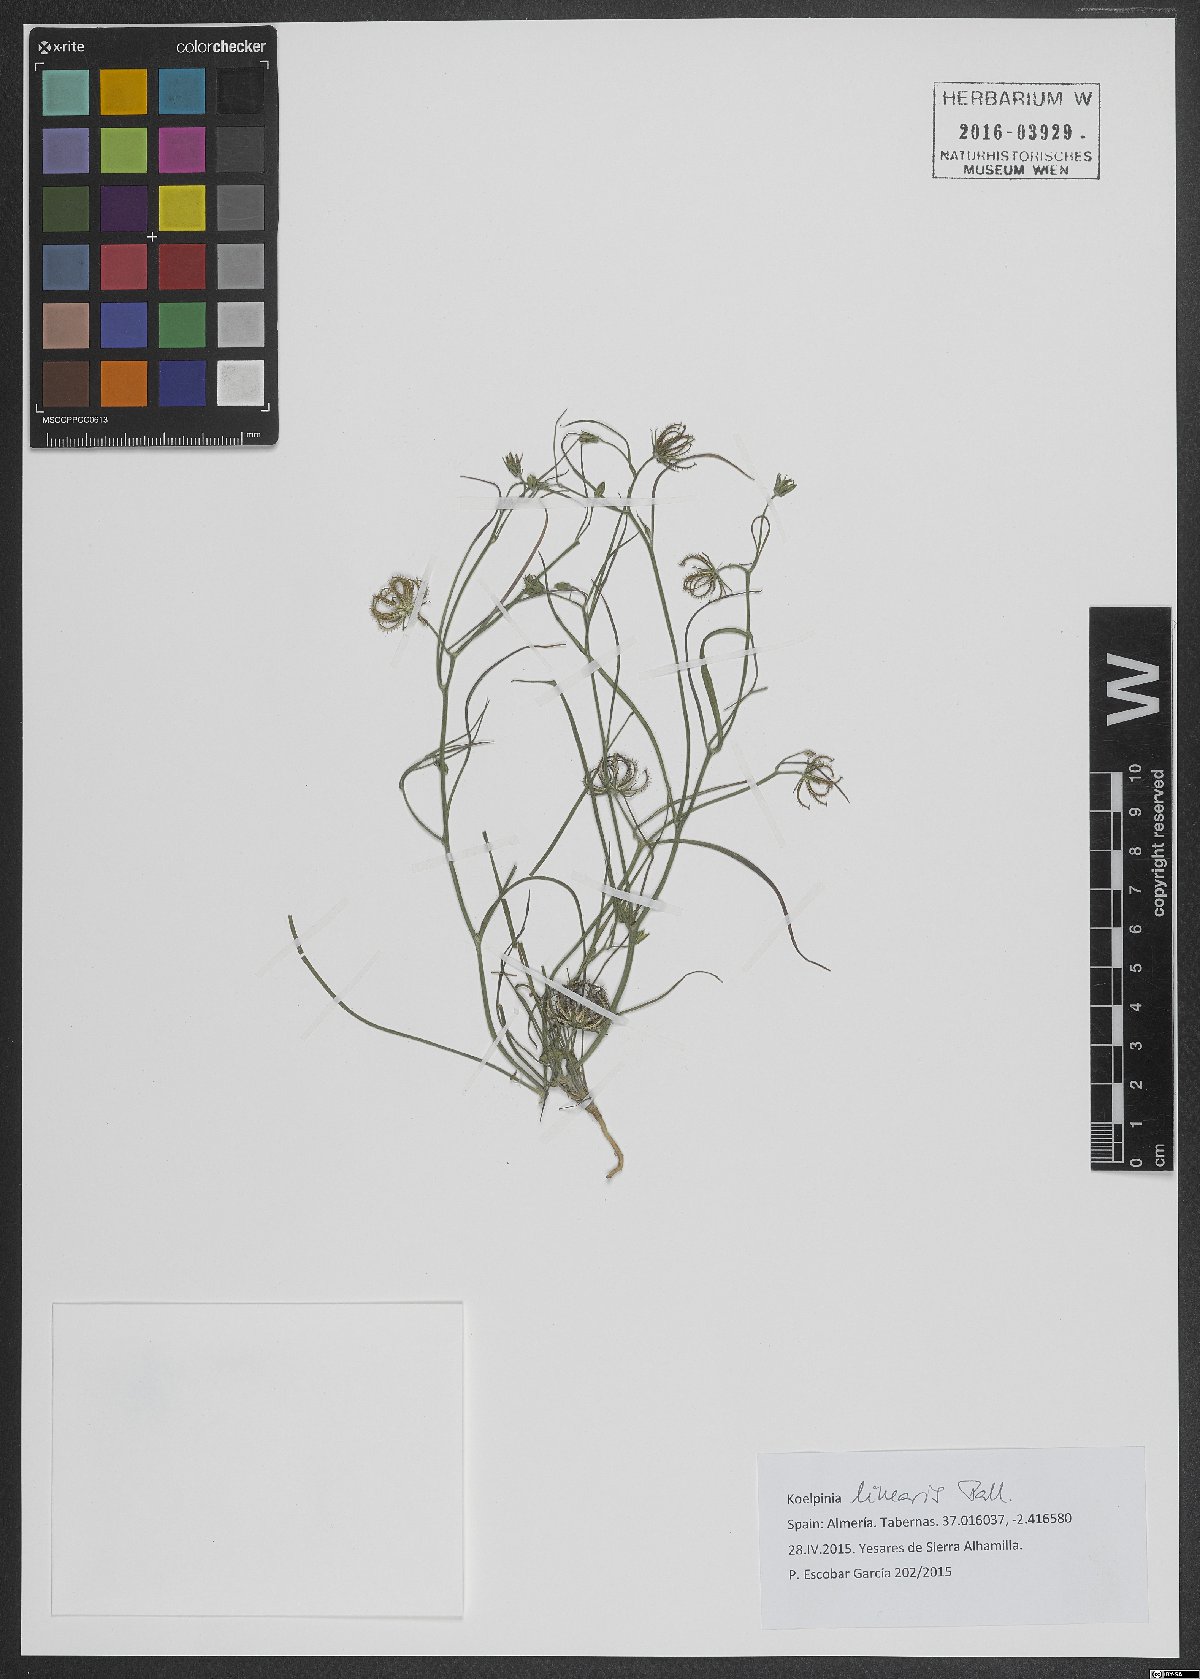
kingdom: Plantae
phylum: Tracheophyta
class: Magnoliopsida
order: Asterales
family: Asteraceae
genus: Koelpinia
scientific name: Koelpinia linearis
